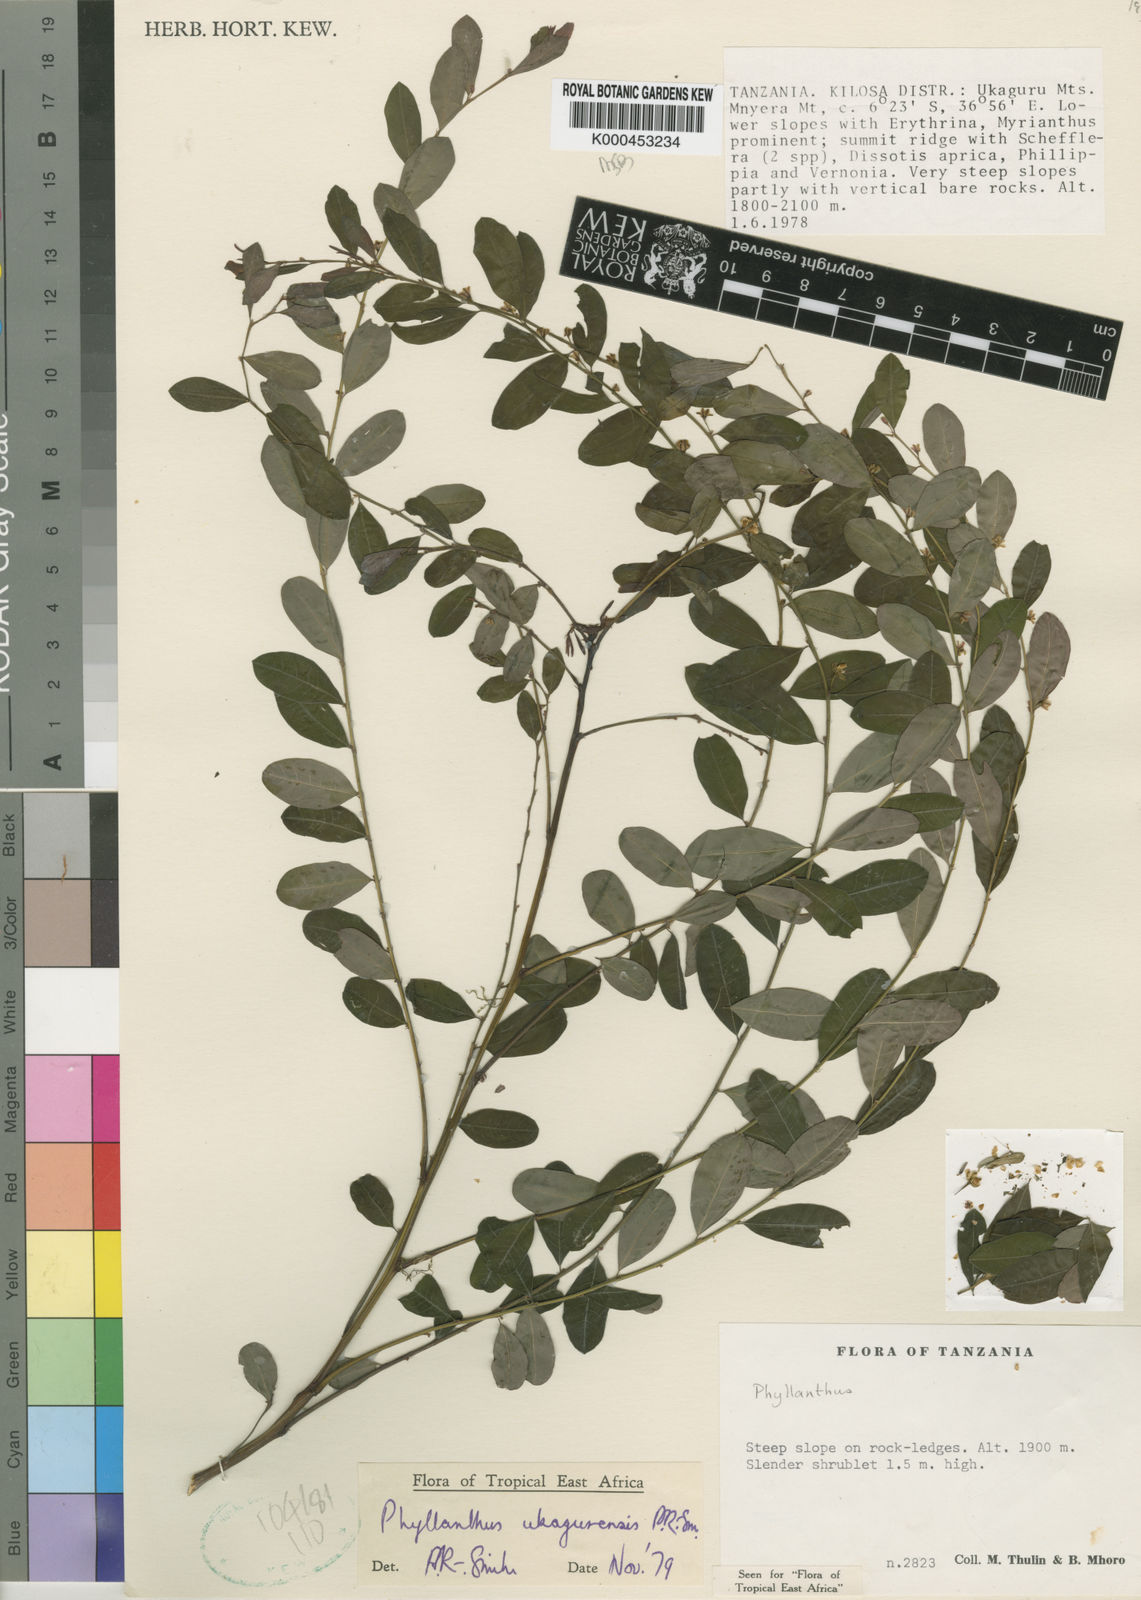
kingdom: Plantae
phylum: Tracheophyta
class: Magnoliopsida
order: Malpighiales
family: Phyllanthaceae
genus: Phyllanthus
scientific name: Phyllanthus
